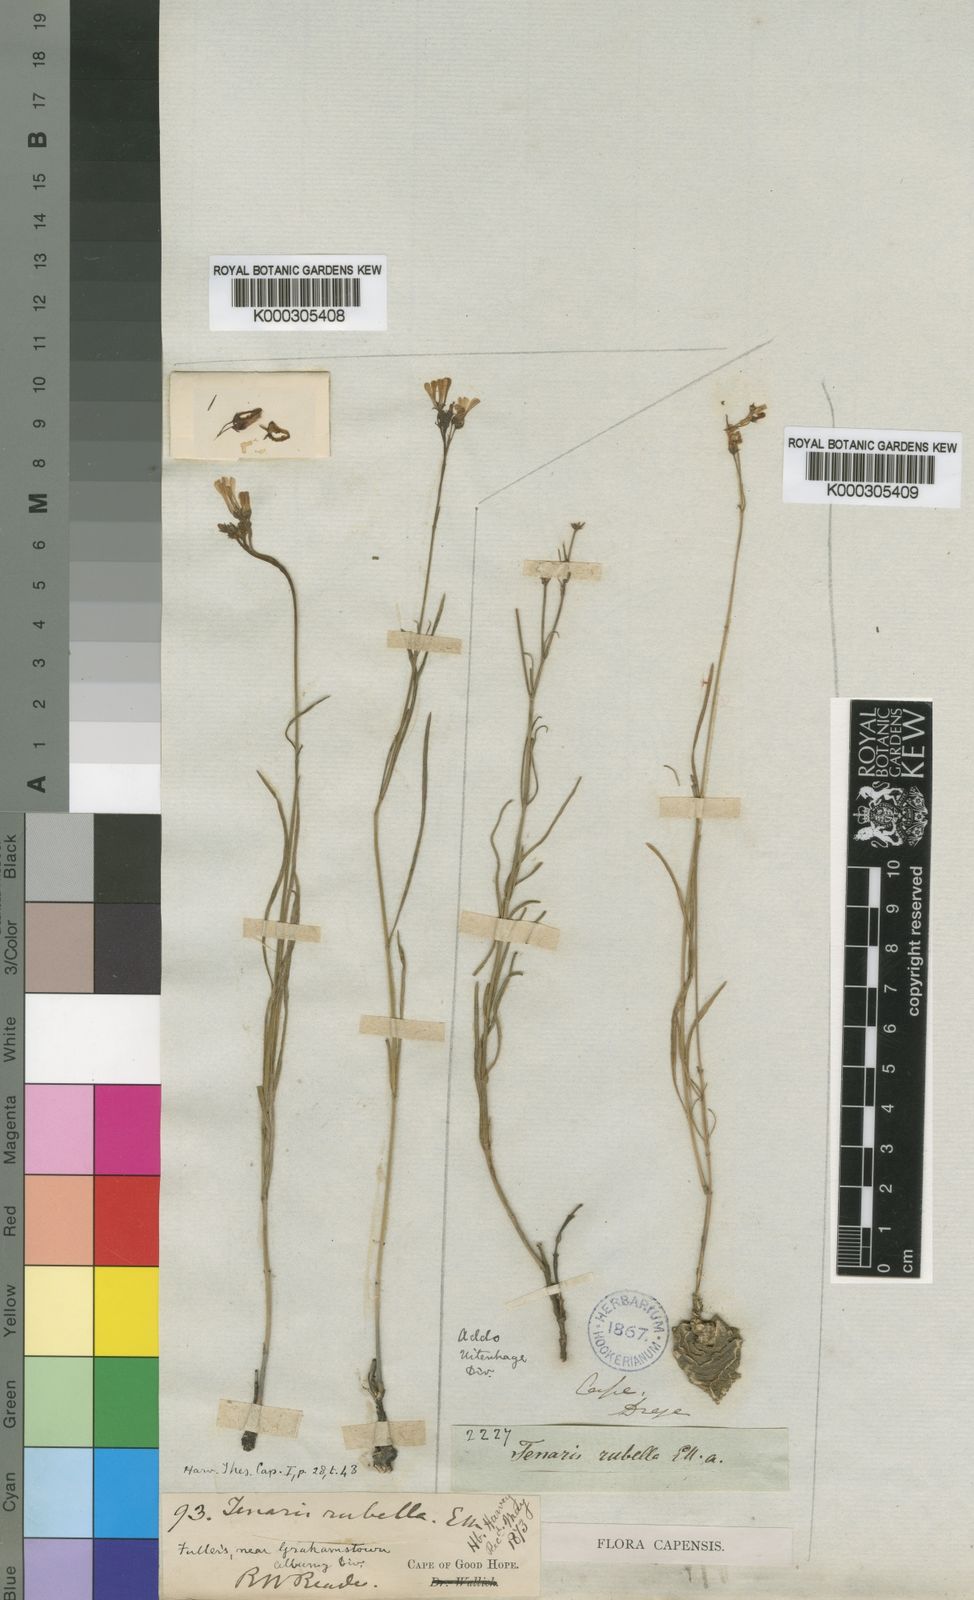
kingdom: Plantae
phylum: Tracheophyta
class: Magnoliopsida
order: Gentianales
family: Apocynaceae
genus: Ceropegia
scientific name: Ceropegia rubella
